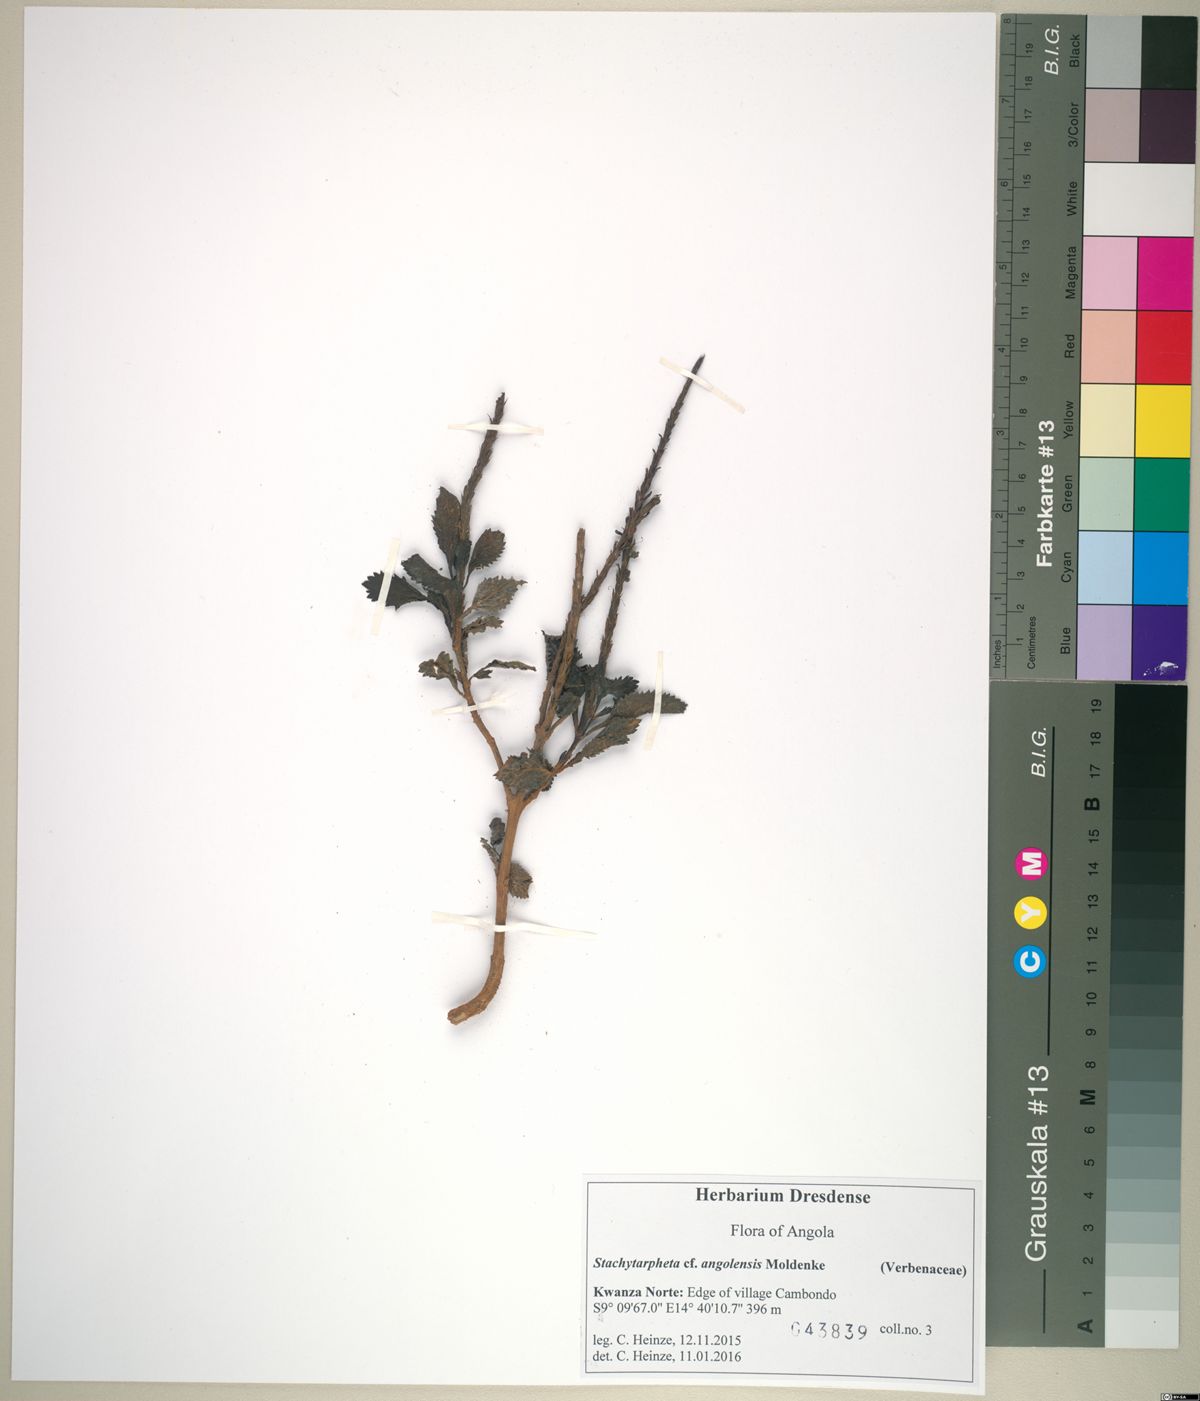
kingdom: Plantae
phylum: Tracheophyta
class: Magnoliopsida
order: Lamiales
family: Verbenaceae
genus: Stachytarpheta
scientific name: Stachytarpheta cayennensis
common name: Cayenne porterweed
